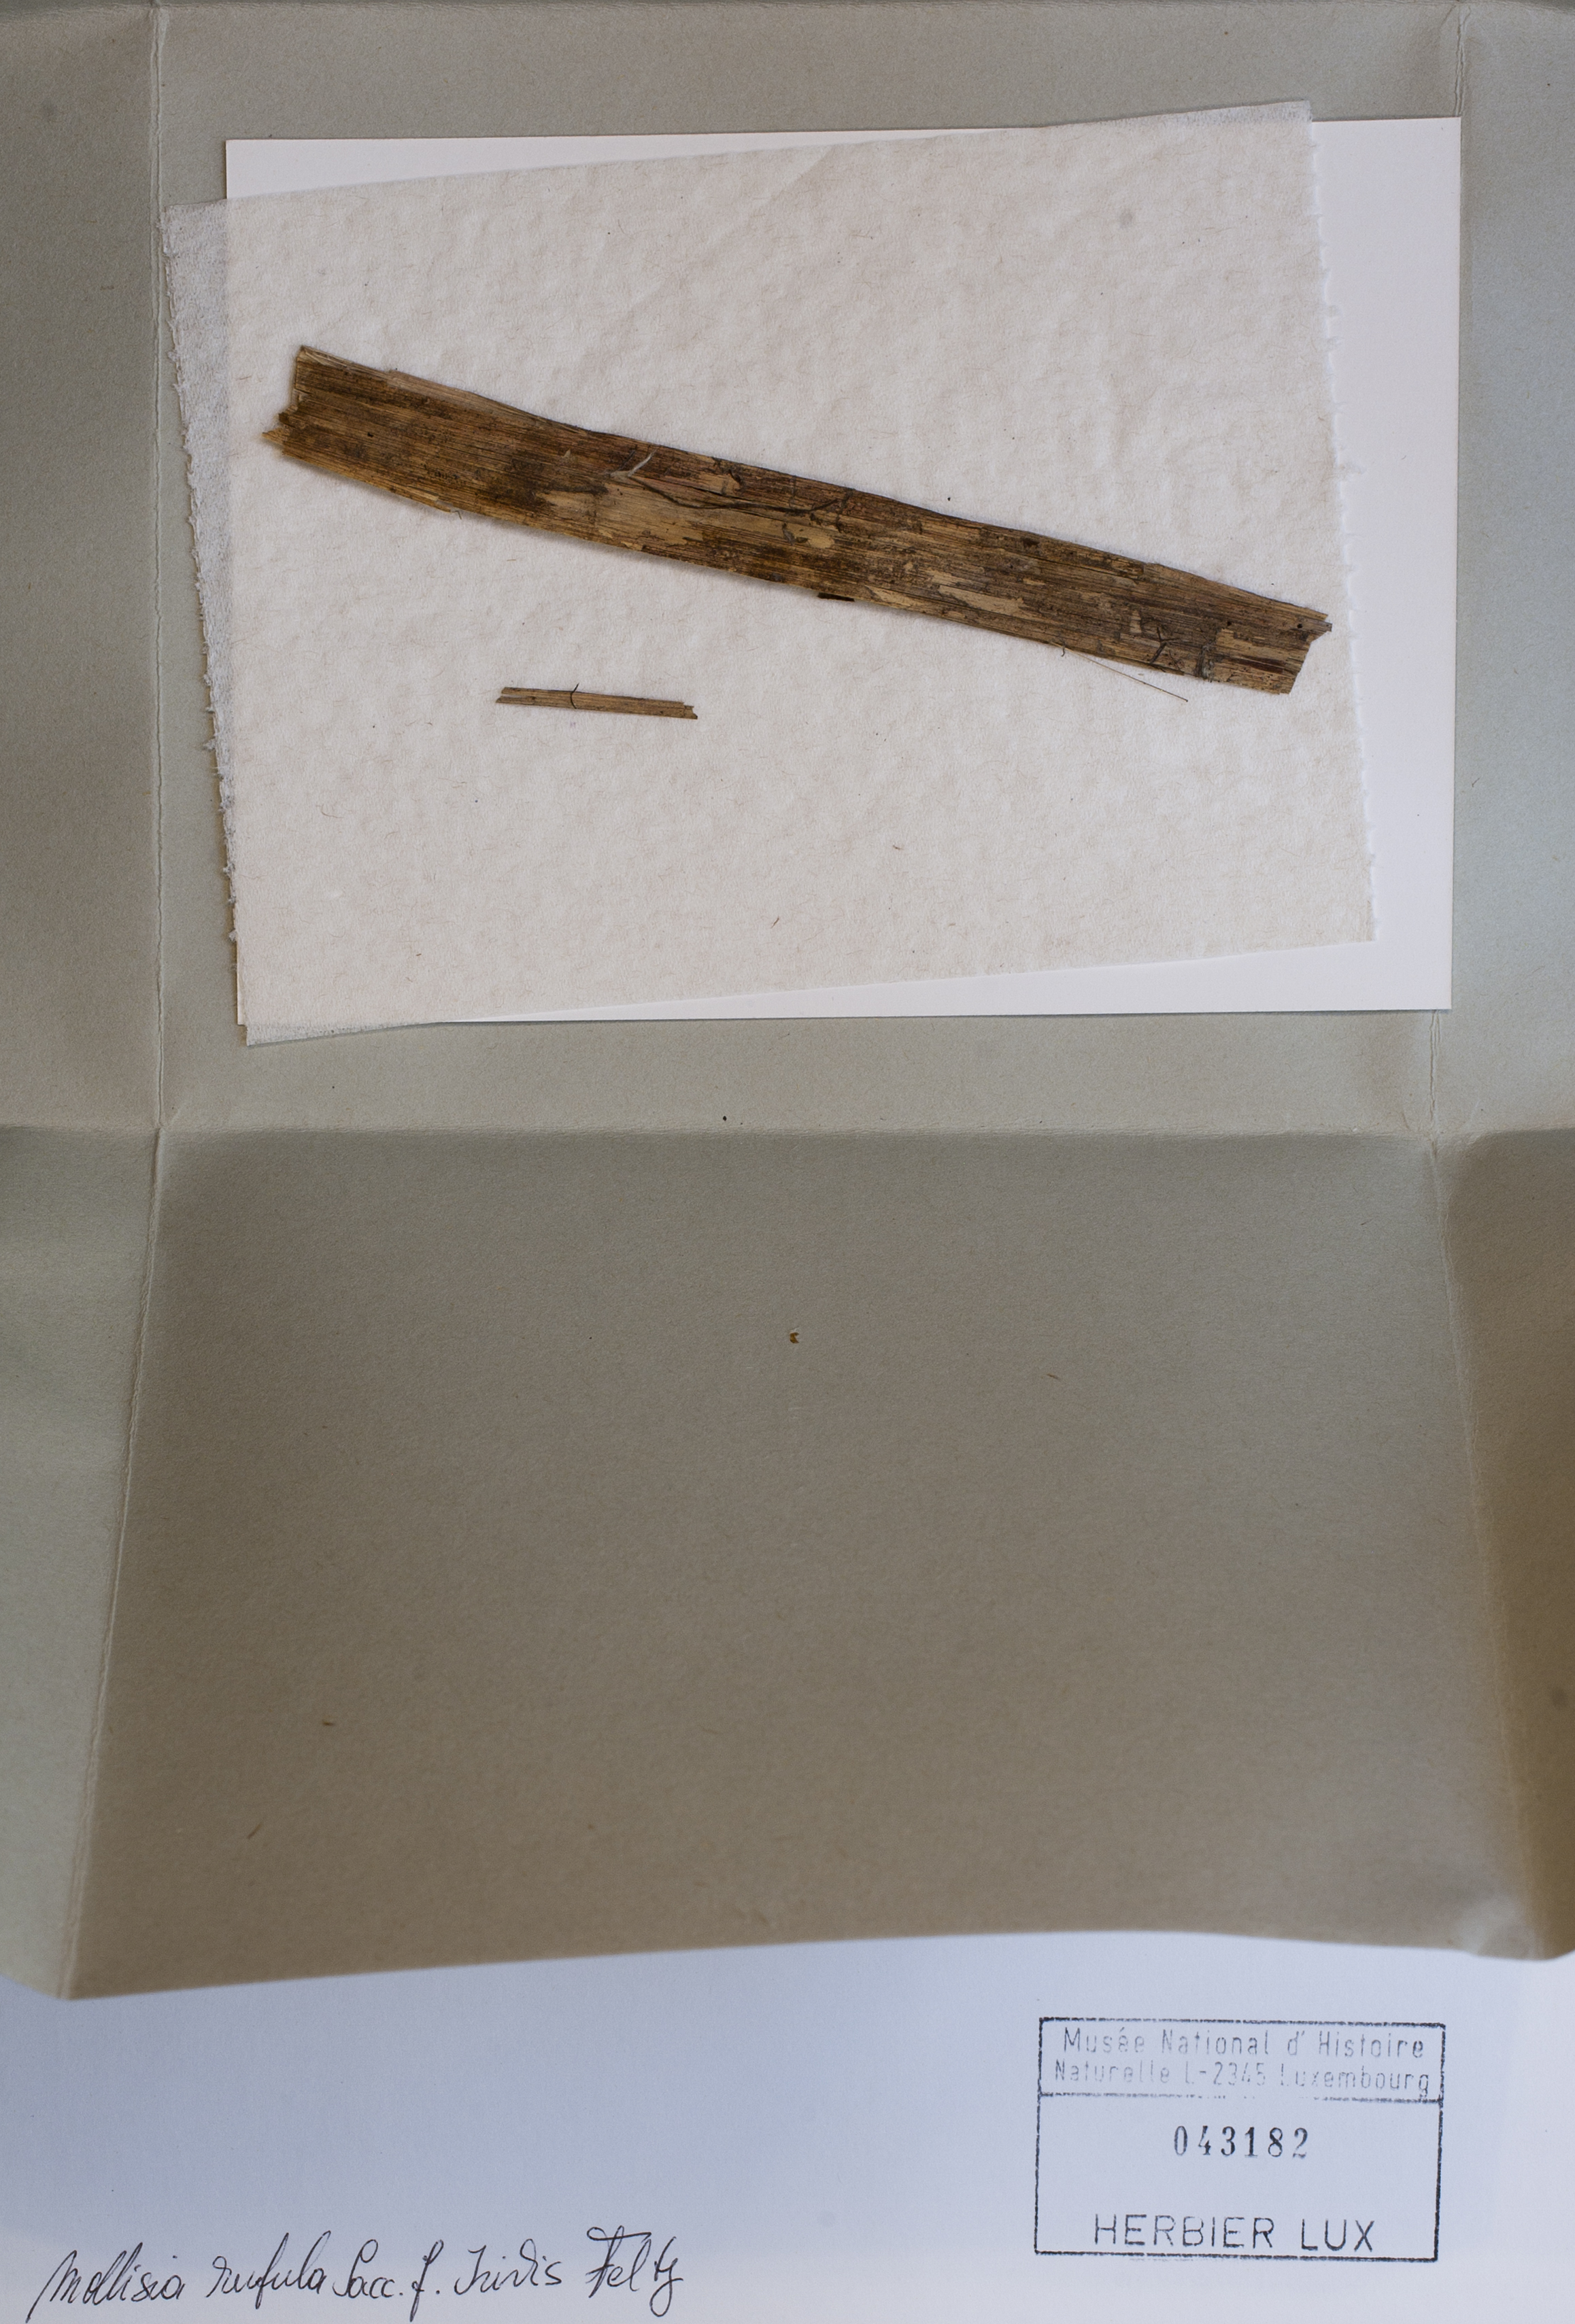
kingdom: Fungi
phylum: Ascomycota
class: Leotiomycetes
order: Helotiales
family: Hyaloscyphaceae
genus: Urceolella
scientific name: Urceolella rufula
